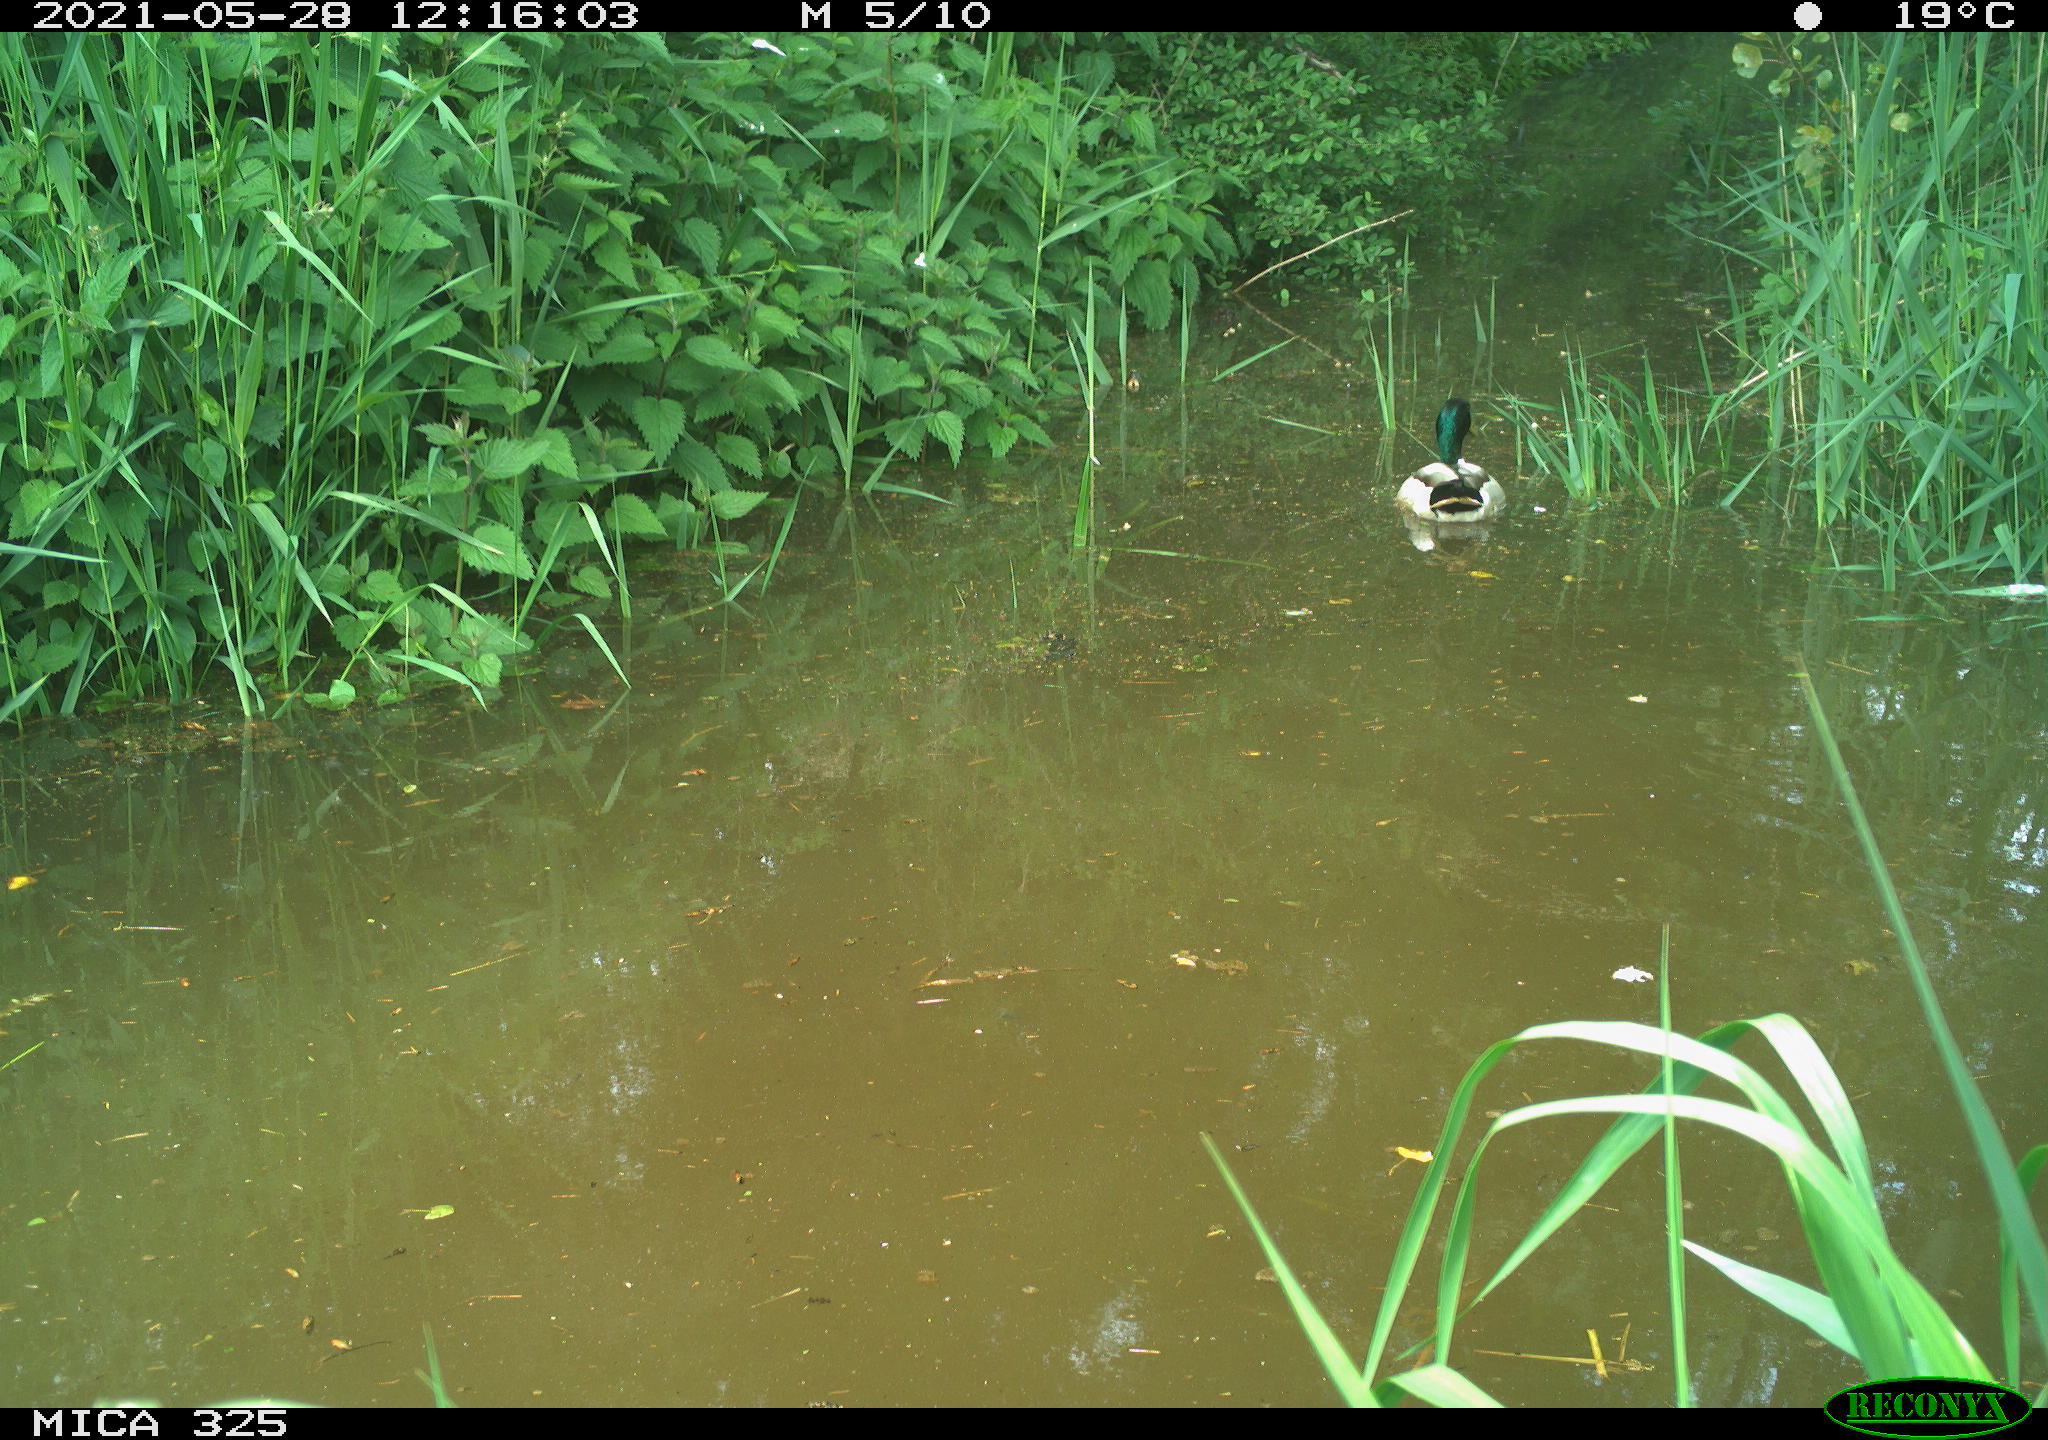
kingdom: Animalia
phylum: Chordata
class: Aves
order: Anseriformes
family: Anatidae
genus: Anas
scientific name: Anas platyrhynchos
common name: Mallard
